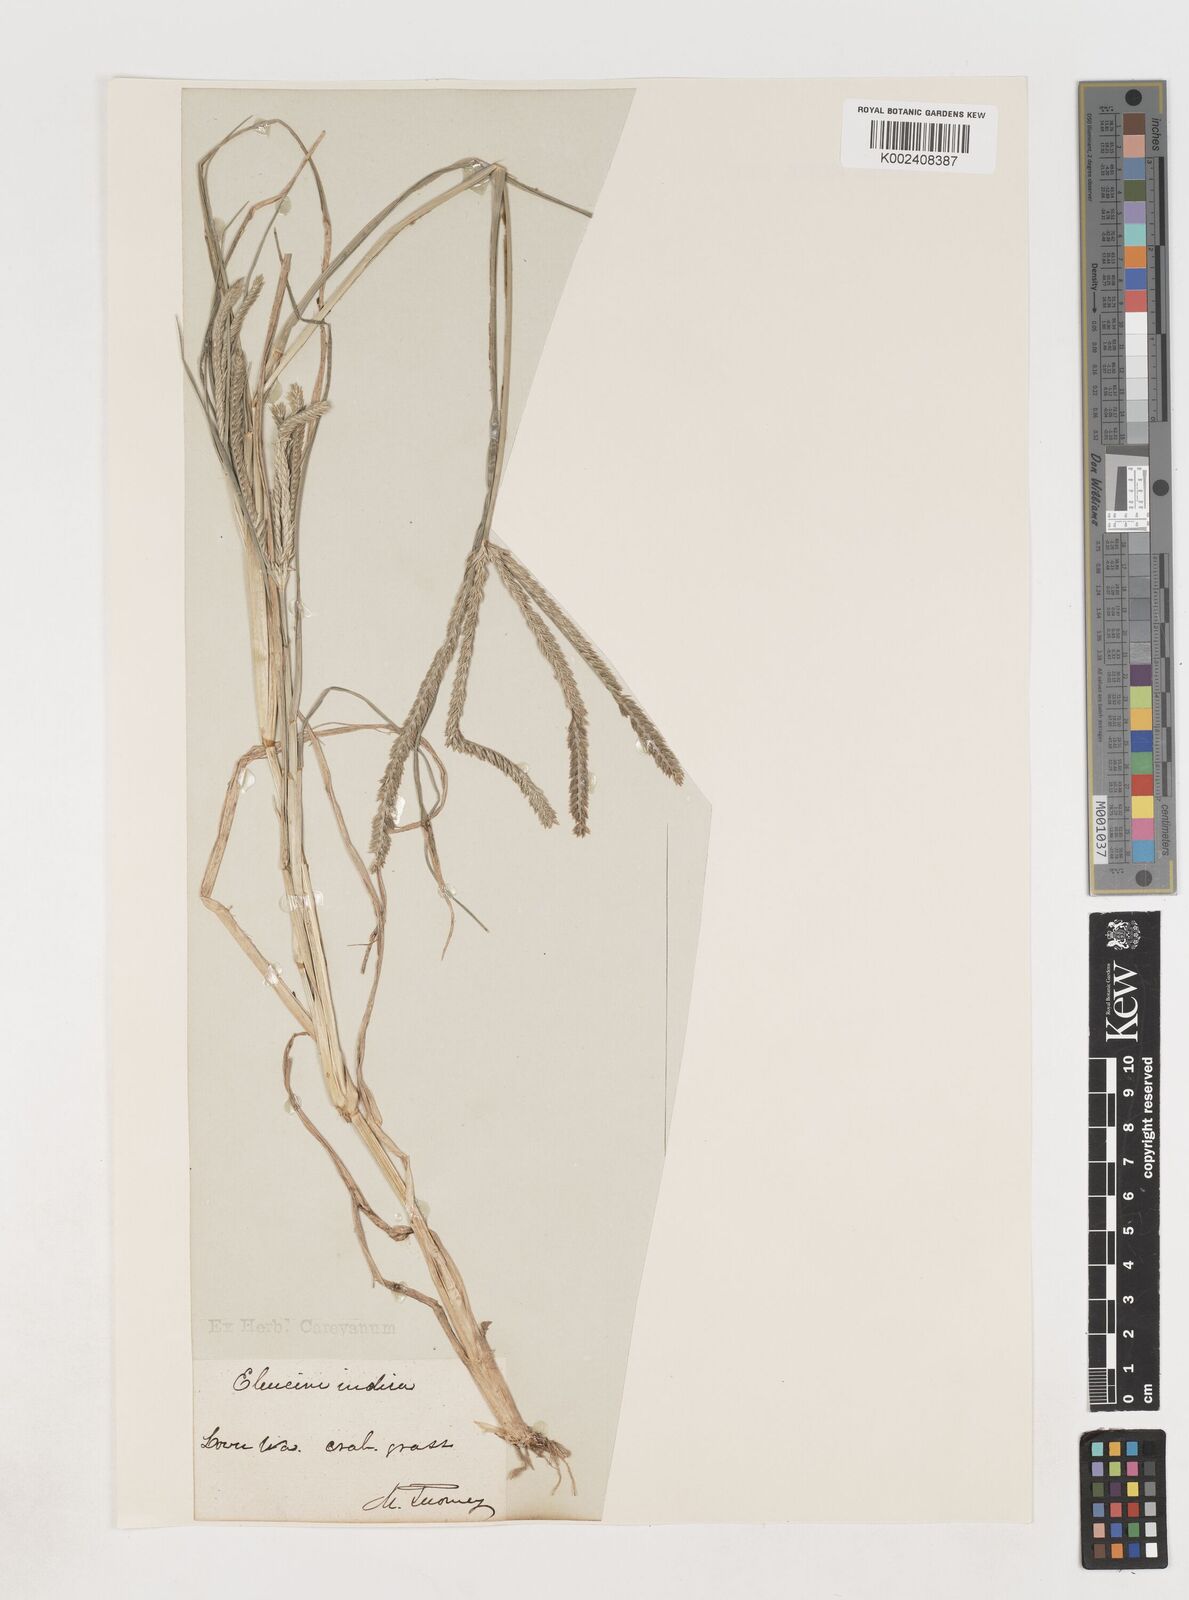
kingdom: Plantae
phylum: Tracheophyta
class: Liliopsida
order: Poales
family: Poaceae
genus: Eleusine
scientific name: Eleusine indica
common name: Yard-grass
